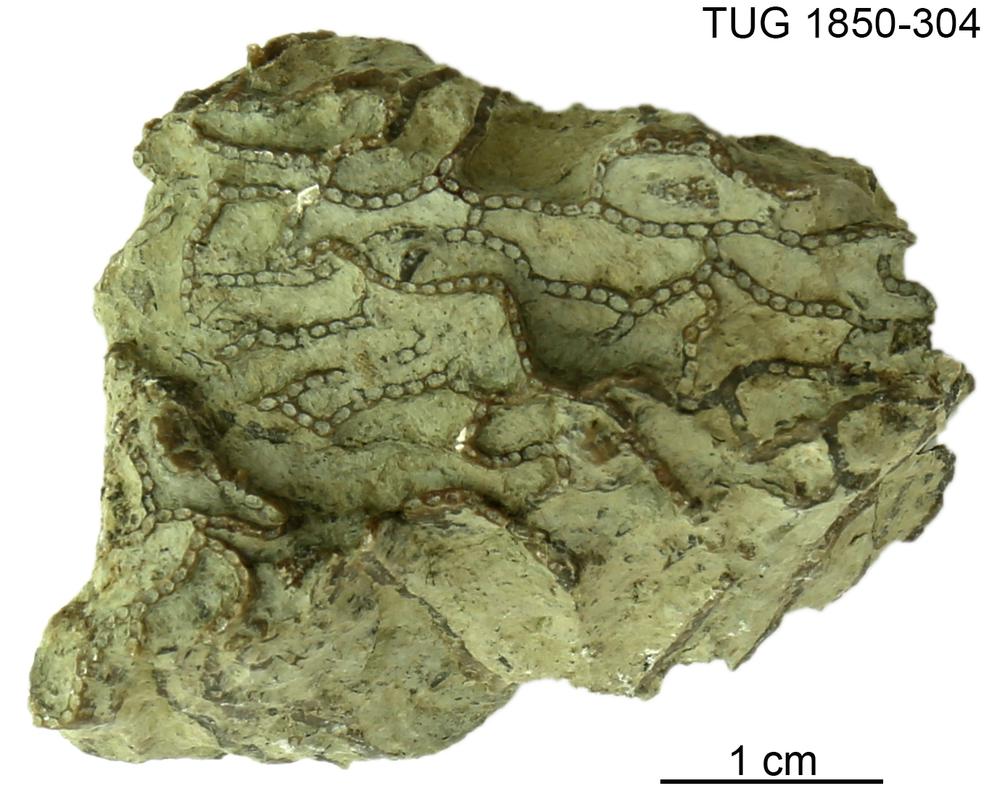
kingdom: Animalia
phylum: Cnidaria
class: Anthozoa
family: Halysitidae
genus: Halysites
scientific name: Halysites
